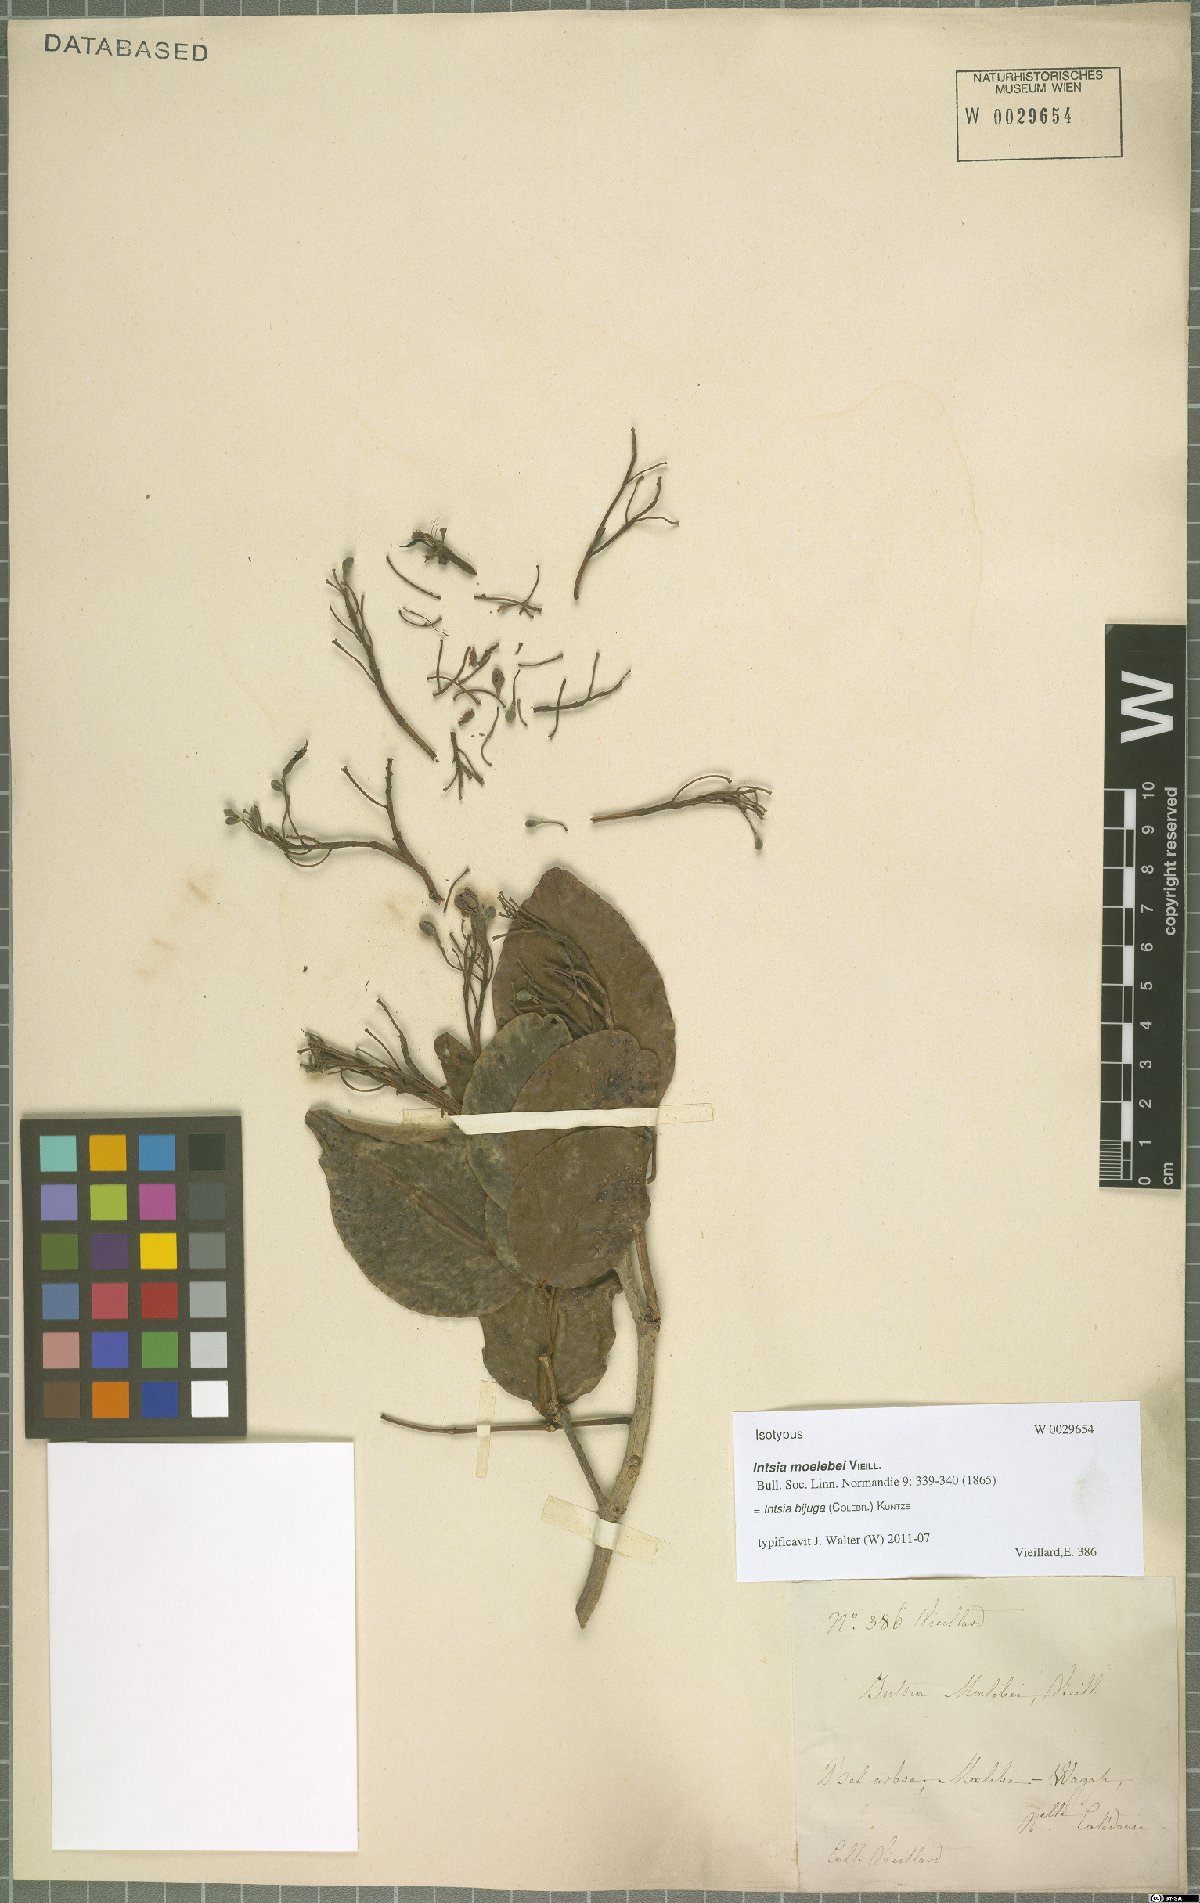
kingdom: Plantae
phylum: Tracheophyta
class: Magnoliopsida
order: Fabales
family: Fabaceae
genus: Intsia
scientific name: Intsia bijuga
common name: Moluccan ironwood
